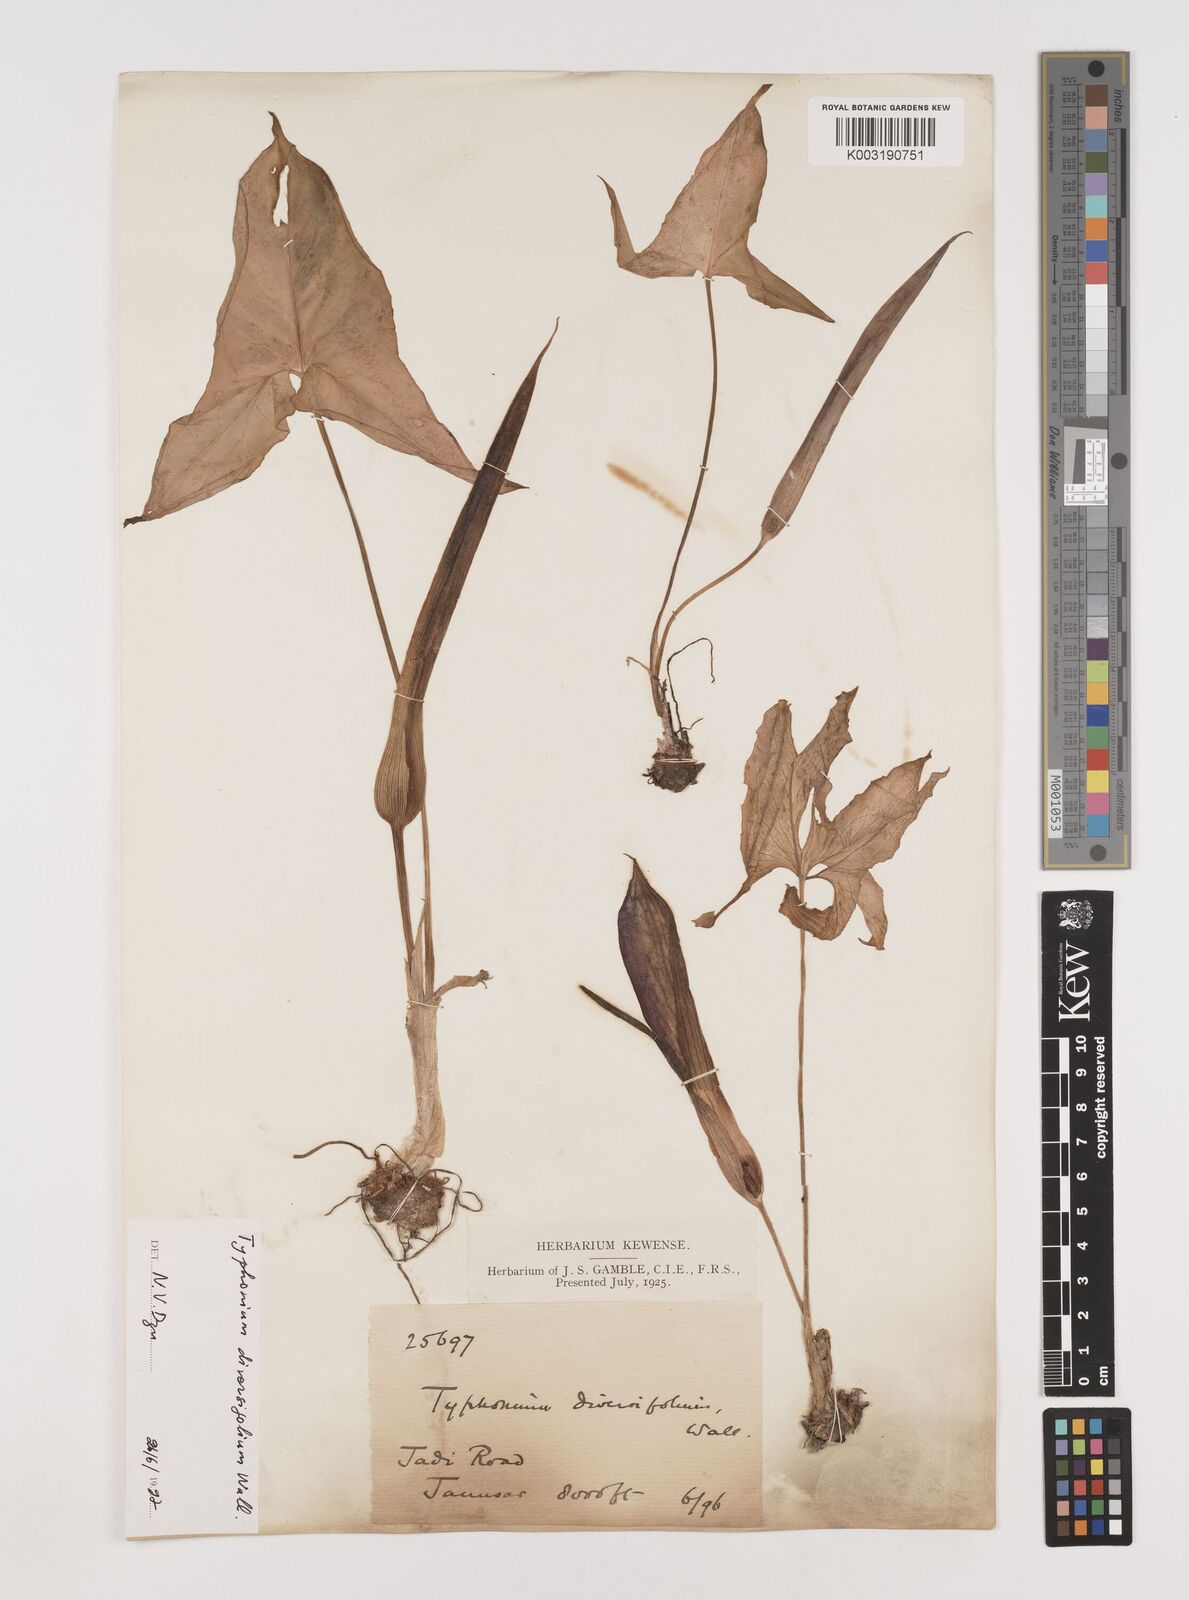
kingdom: Plantae
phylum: Tracheophyta
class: Liliopsida
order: Alismatales
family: Araceae
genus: Sauromatum
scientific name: Sauromatum diversifolium
